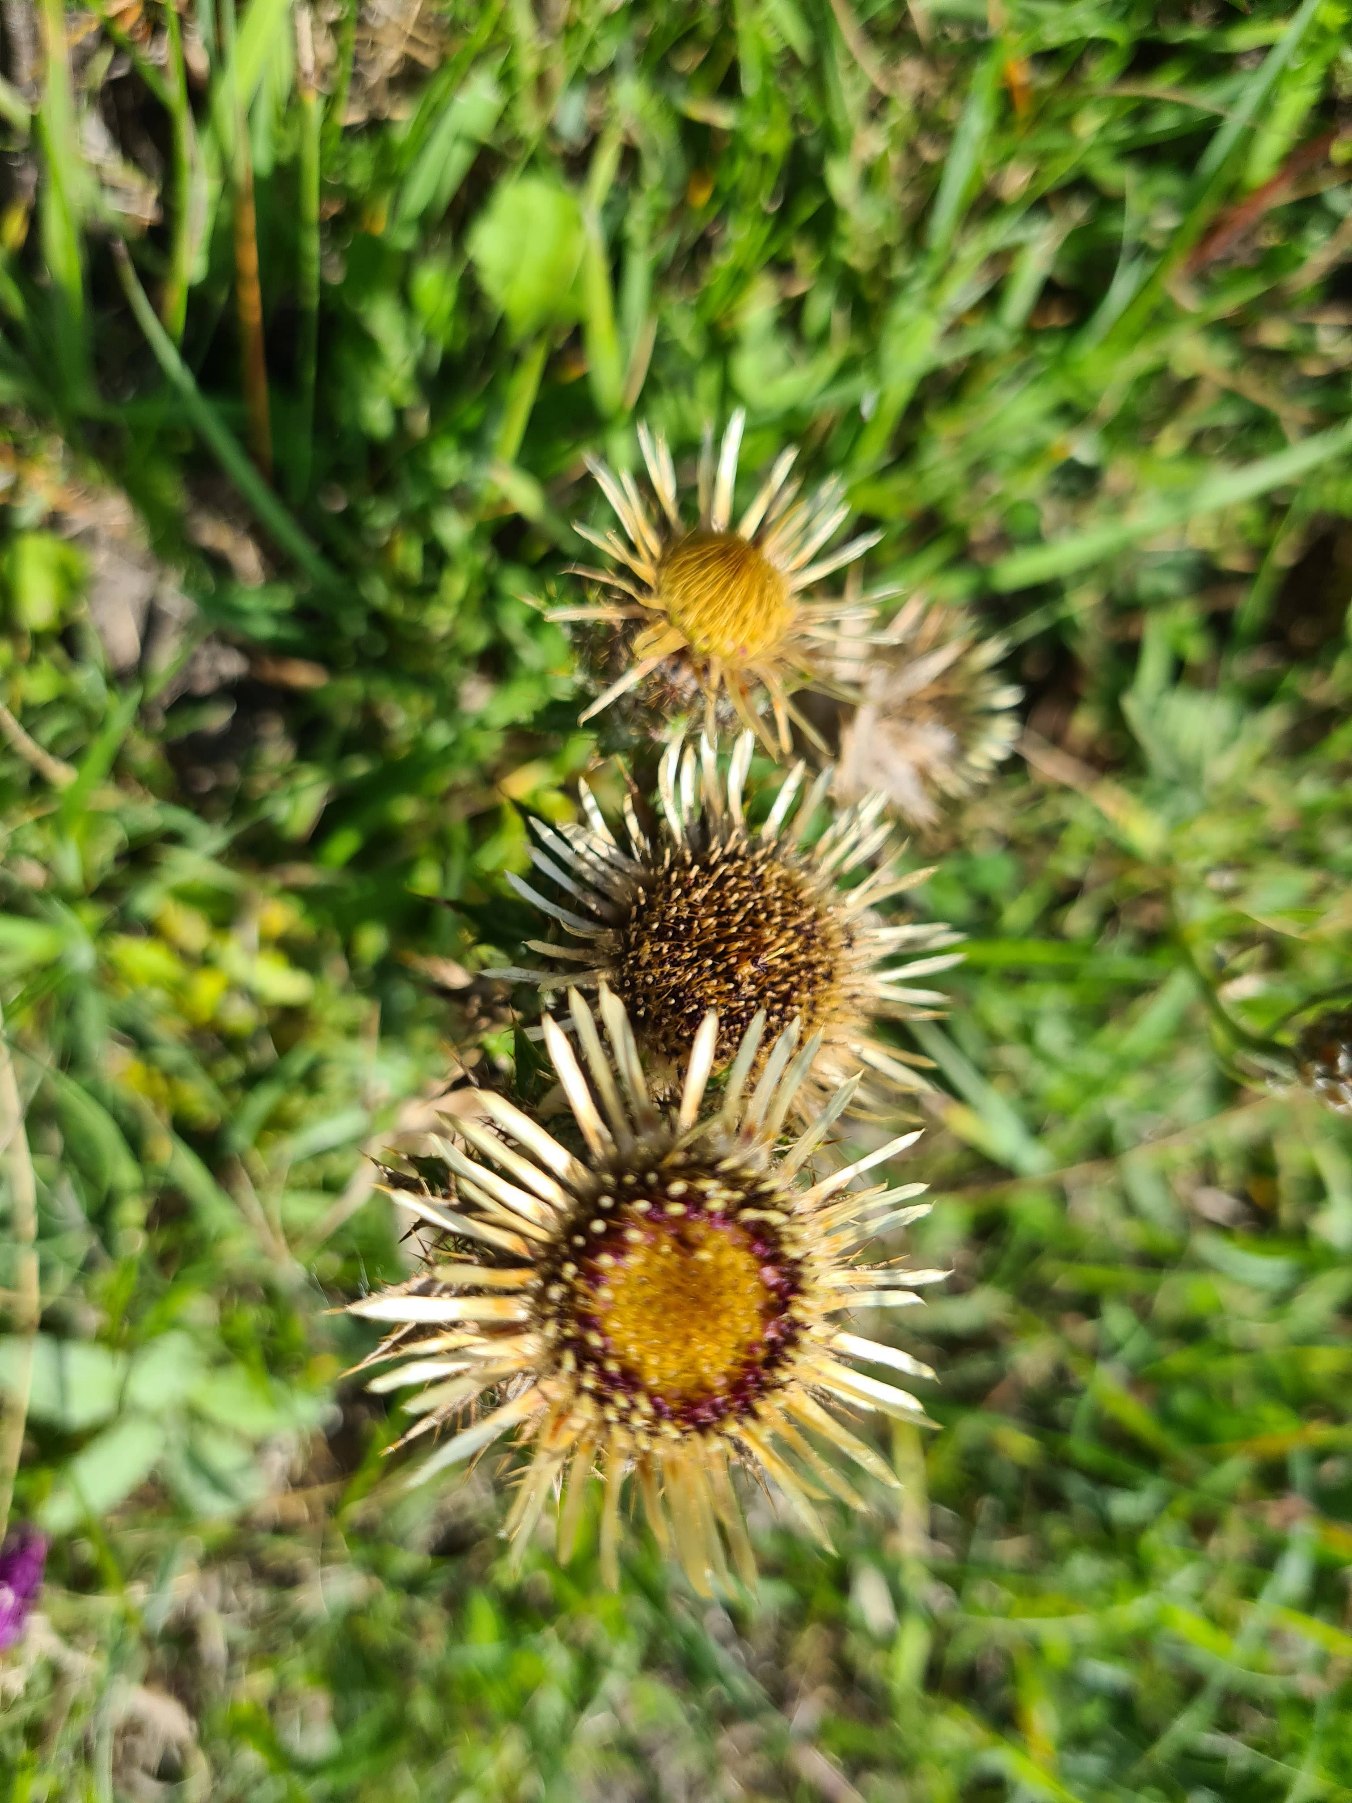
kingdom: Plantae
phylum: Tracheophyta
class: Magnoliopsida
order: Asterales
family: Asteraceae
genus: Carlina
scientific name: Carlina vulgaris
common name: Bakketidsel
